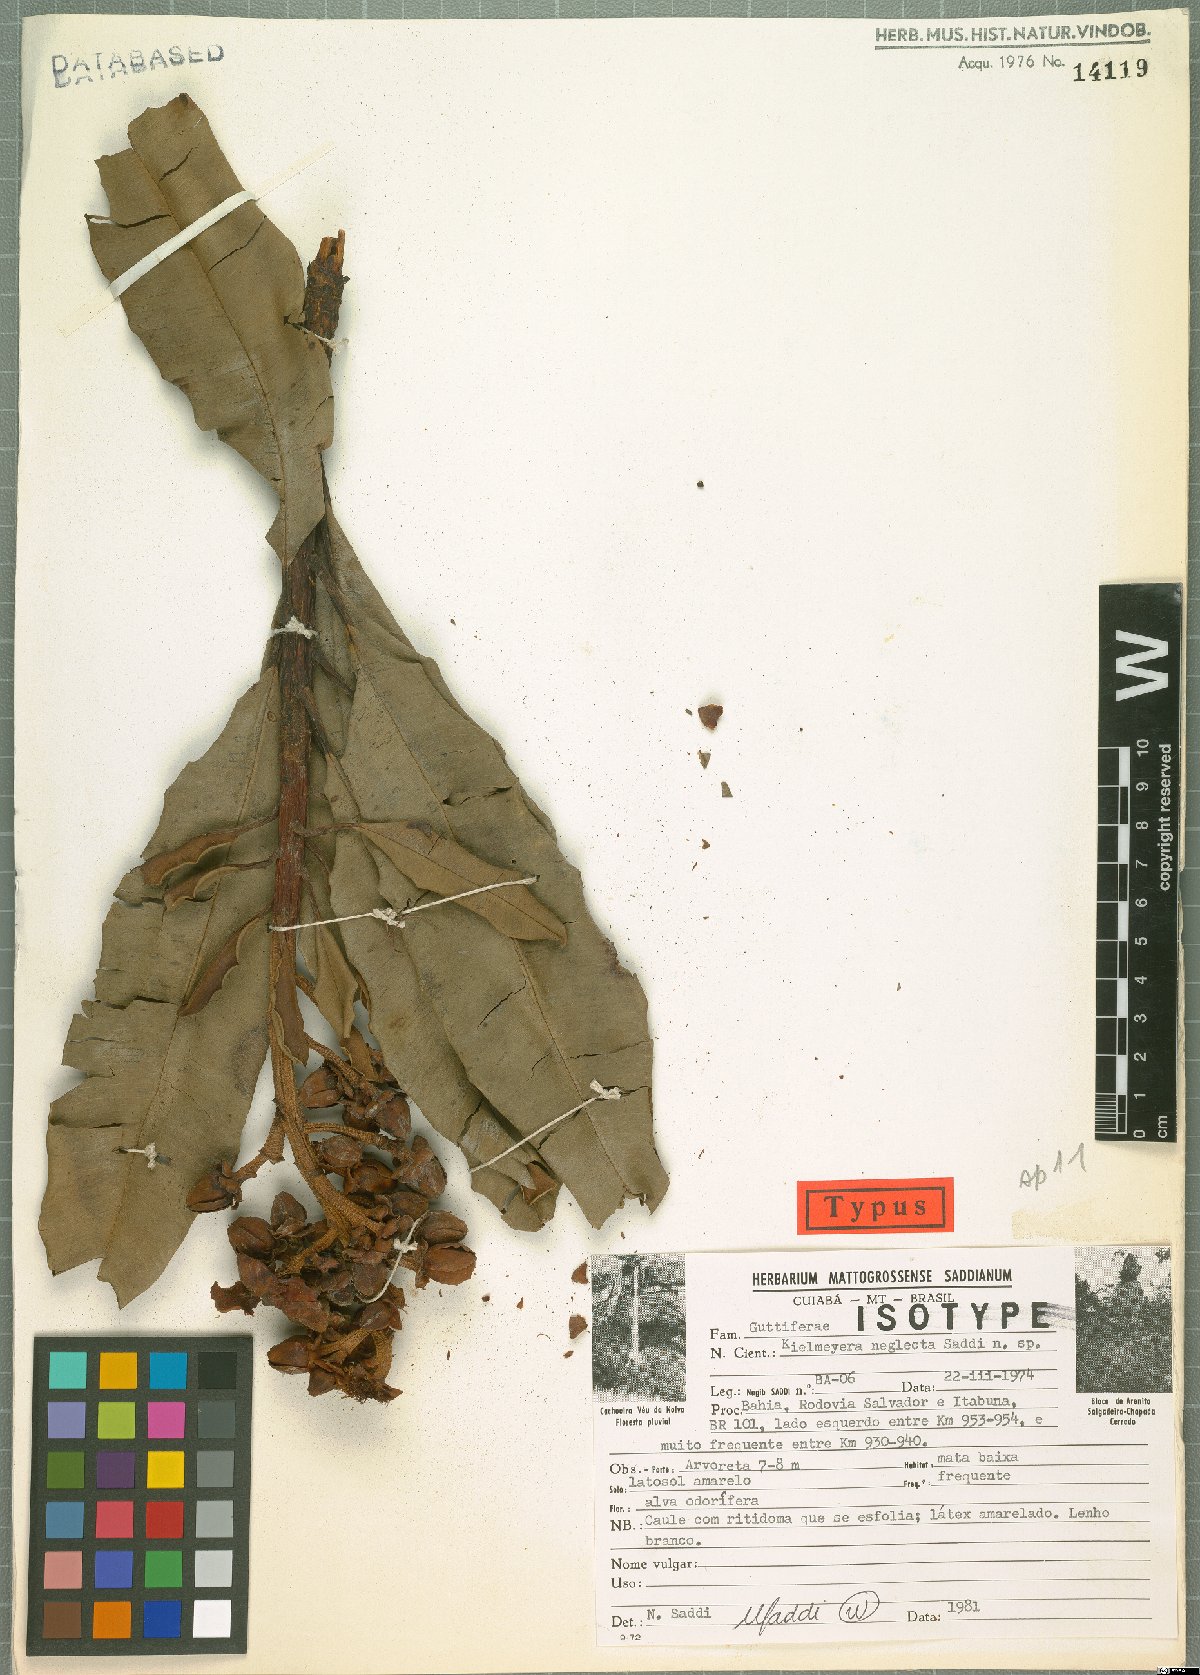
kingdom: Plantae
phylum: Tracheophyta
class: Magnoliopsida
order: Malpighiales
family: Calophyllaceae
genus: Kielmeyera
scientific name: Kielmeyera neglecta
